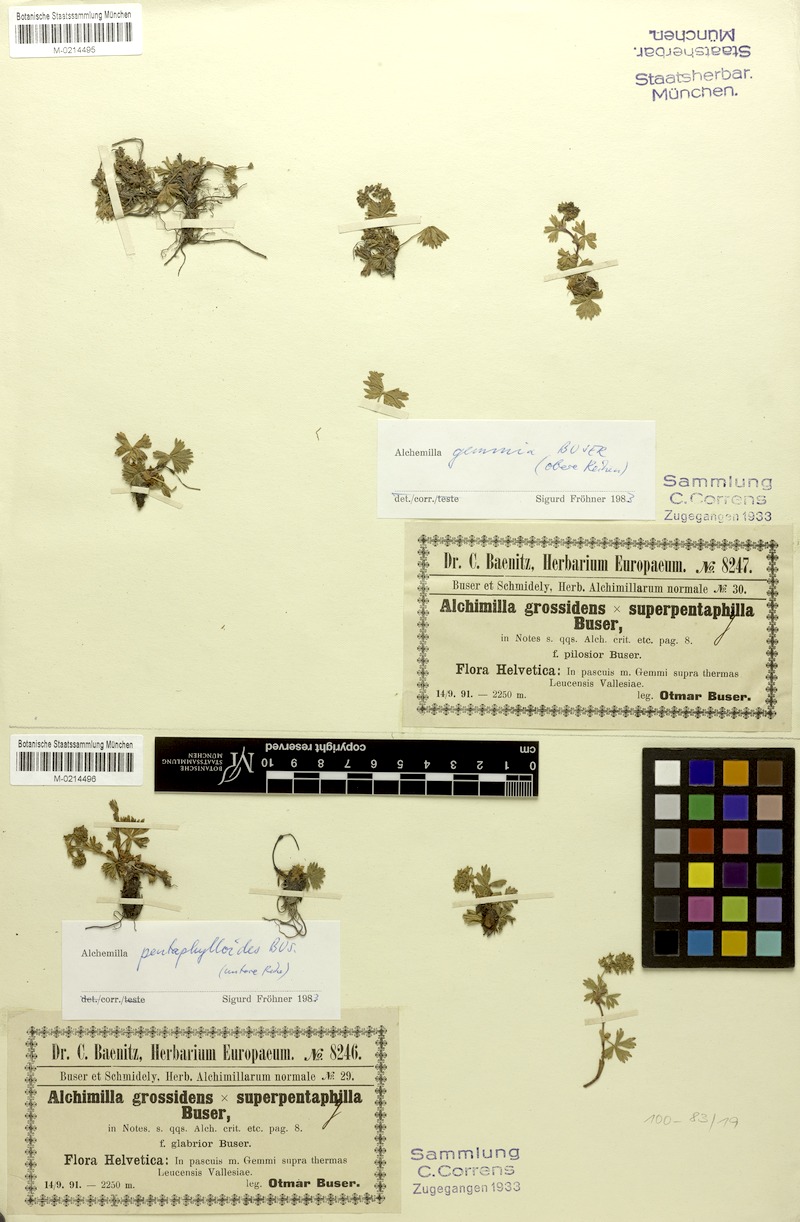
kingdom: Plantae
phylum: Tracheophyta
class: Magnoliopsida
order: Rosales
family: Rosaceae
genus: Alchemilla
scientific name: Alchemilla pentaphylloides
